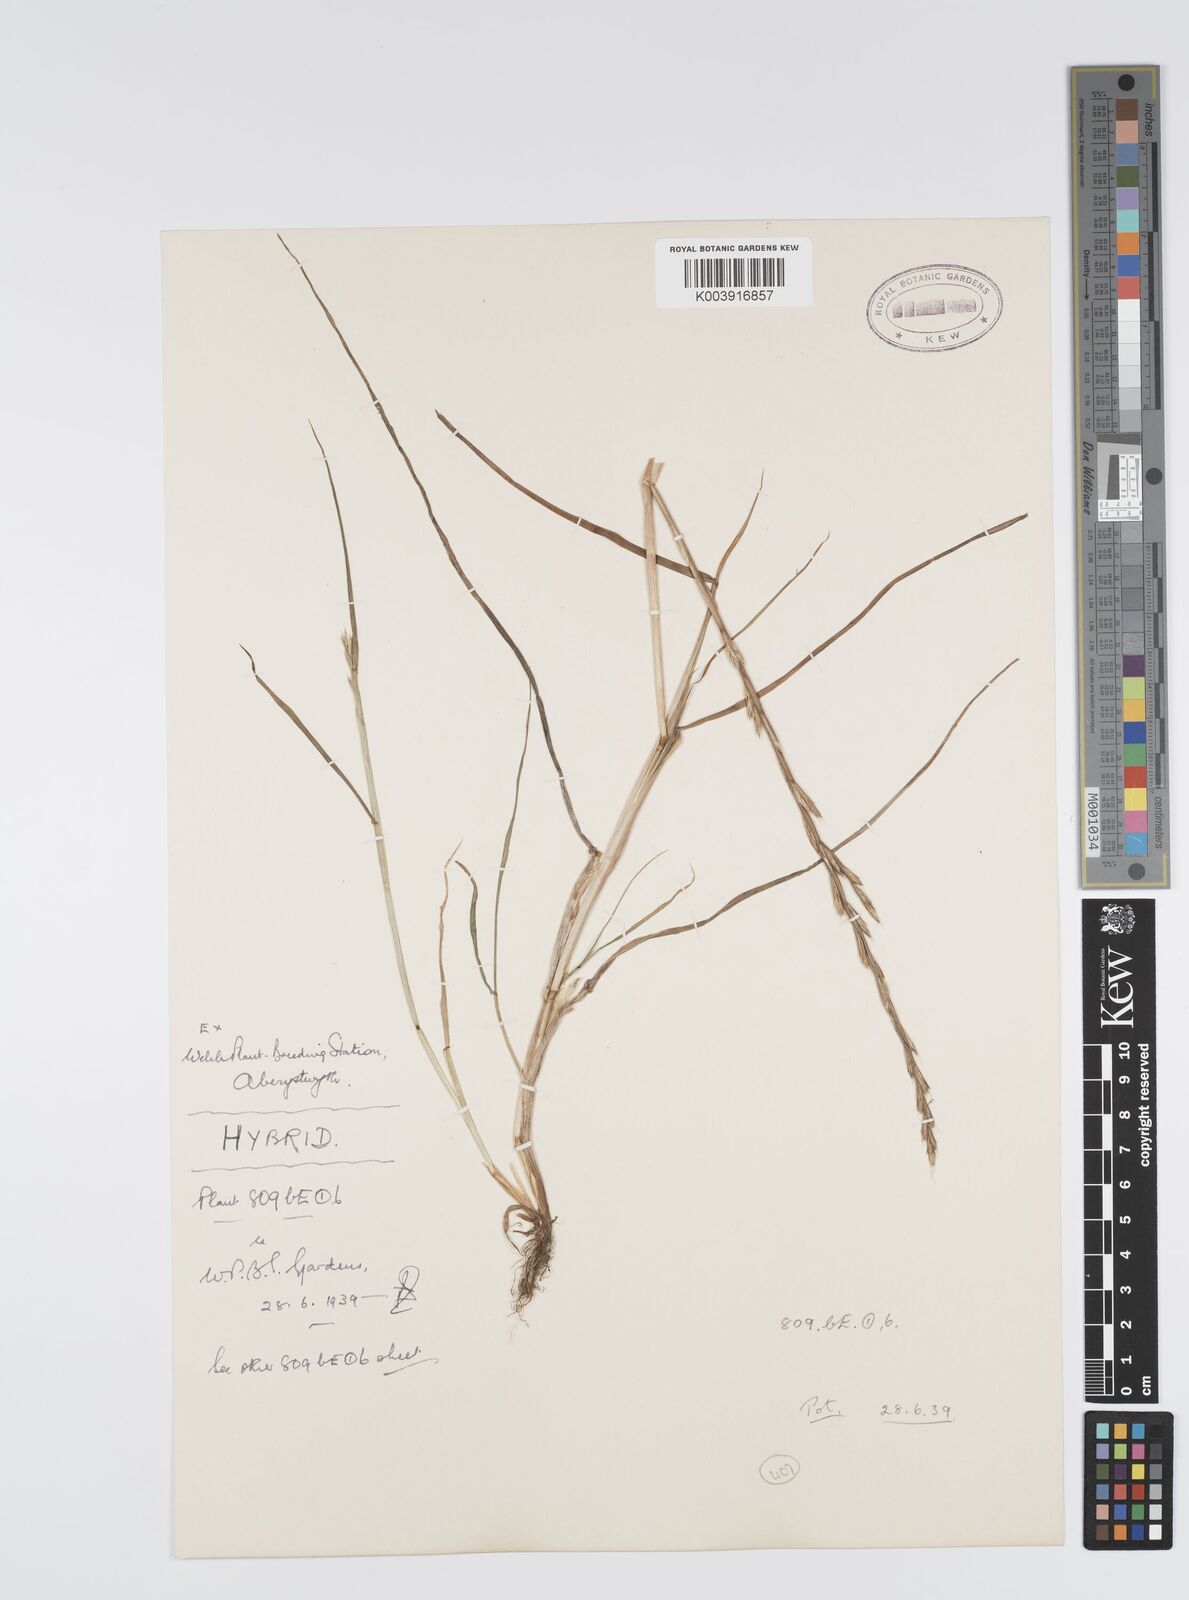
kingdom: Plantae
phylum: Tracheophyta
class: Liliopsida
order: Poales
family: Poaceae
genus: Lolium
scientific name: Lolium multiflorum
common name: Annual ryegrass
